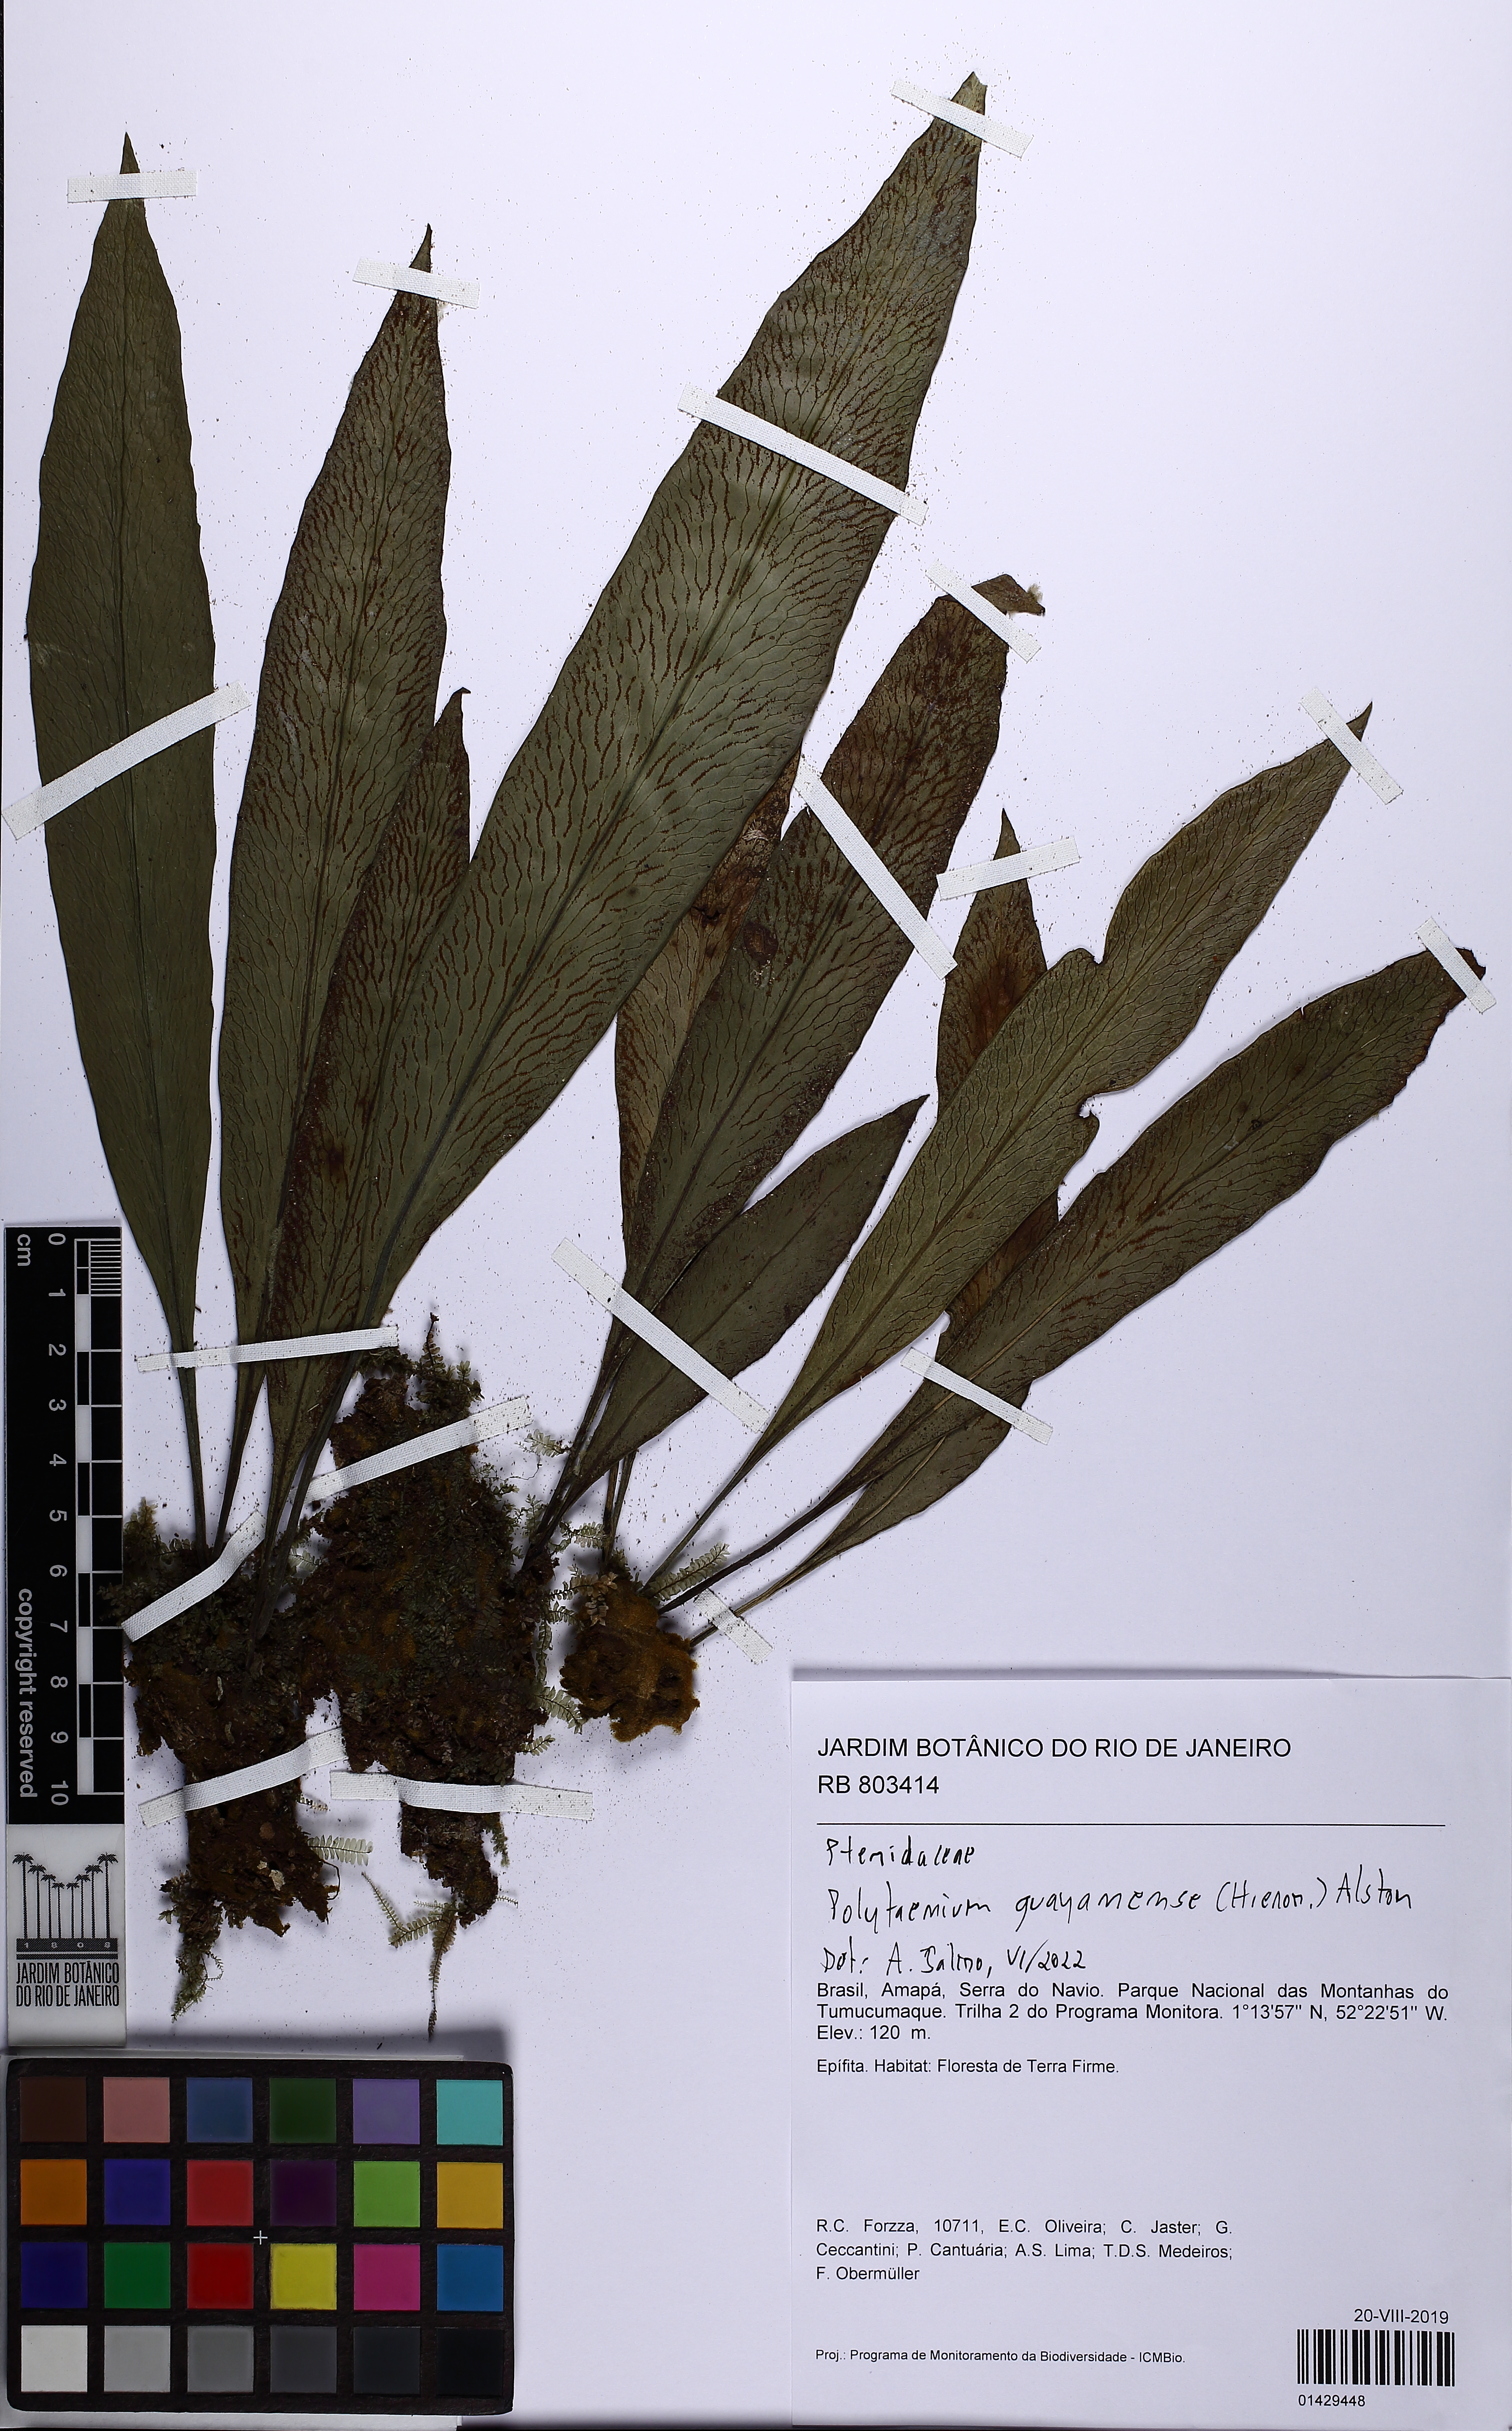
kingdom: Plantae
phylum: Tracheophyta
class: Polypodiopsida
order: Polypodiales
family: Pteridaceae
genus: Polytaenium
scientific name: Polytaenium guayanense
